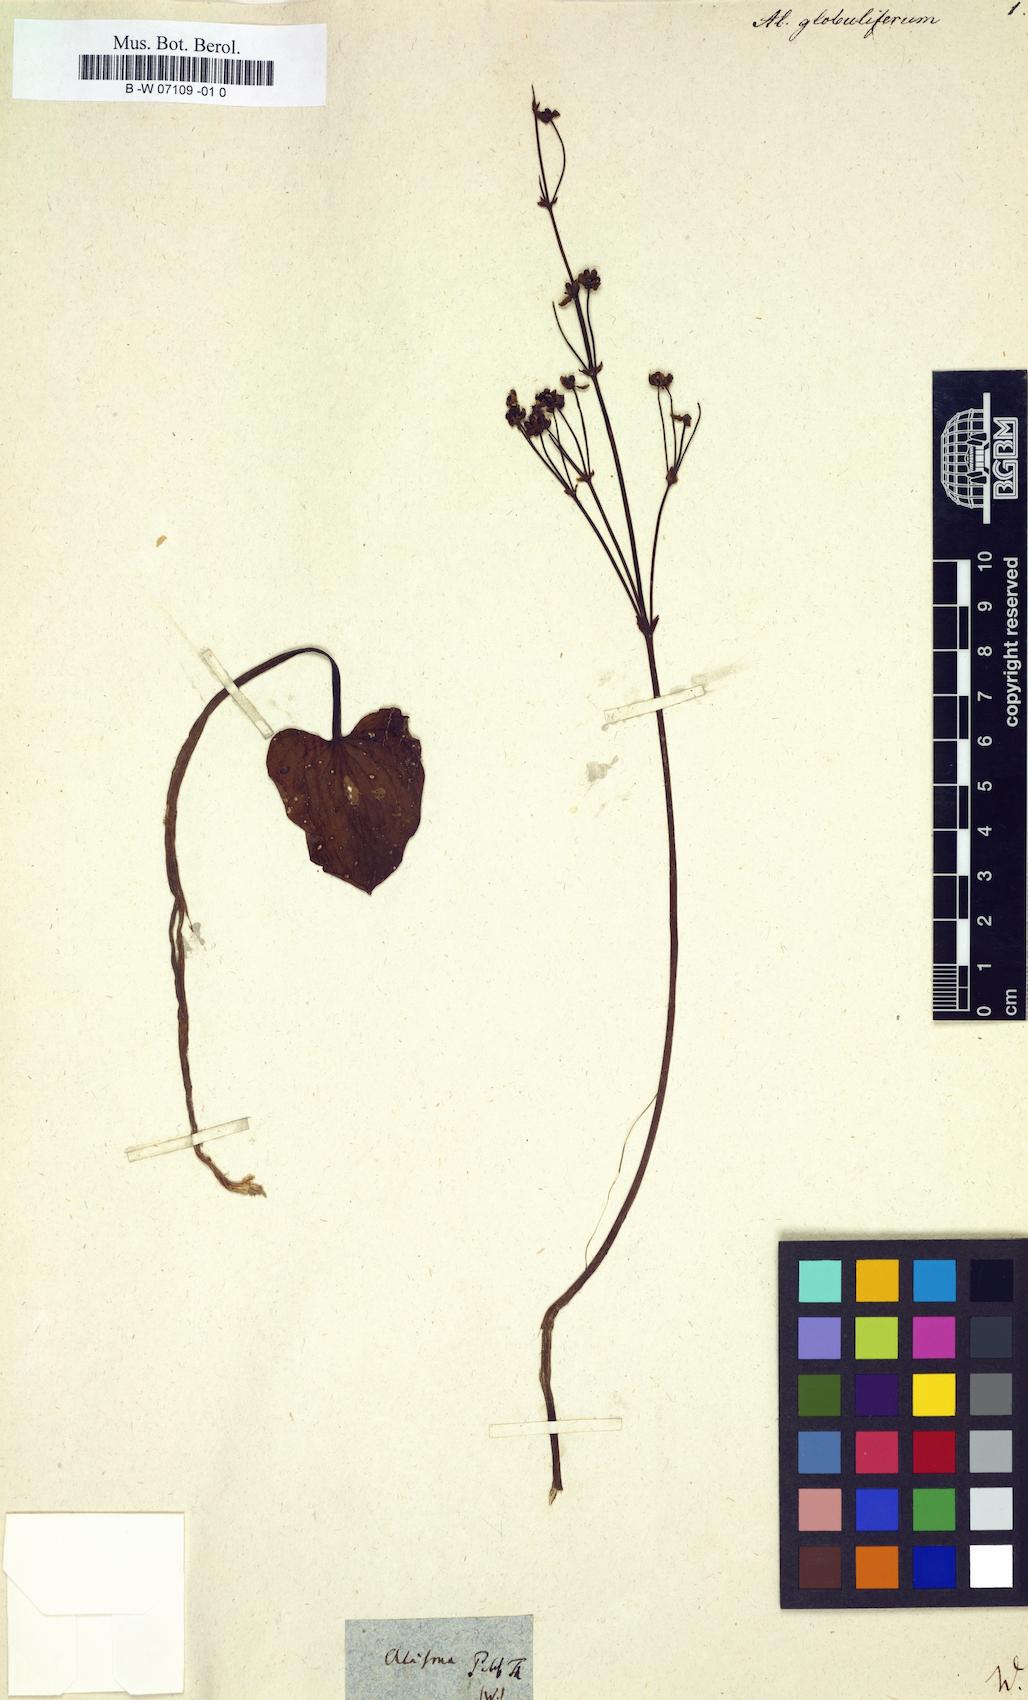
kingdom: Plantae
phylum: Tracheophyta
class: Liliopsida
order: Alismatales
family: Alismataceae
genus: Alisma
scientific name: Alisma
